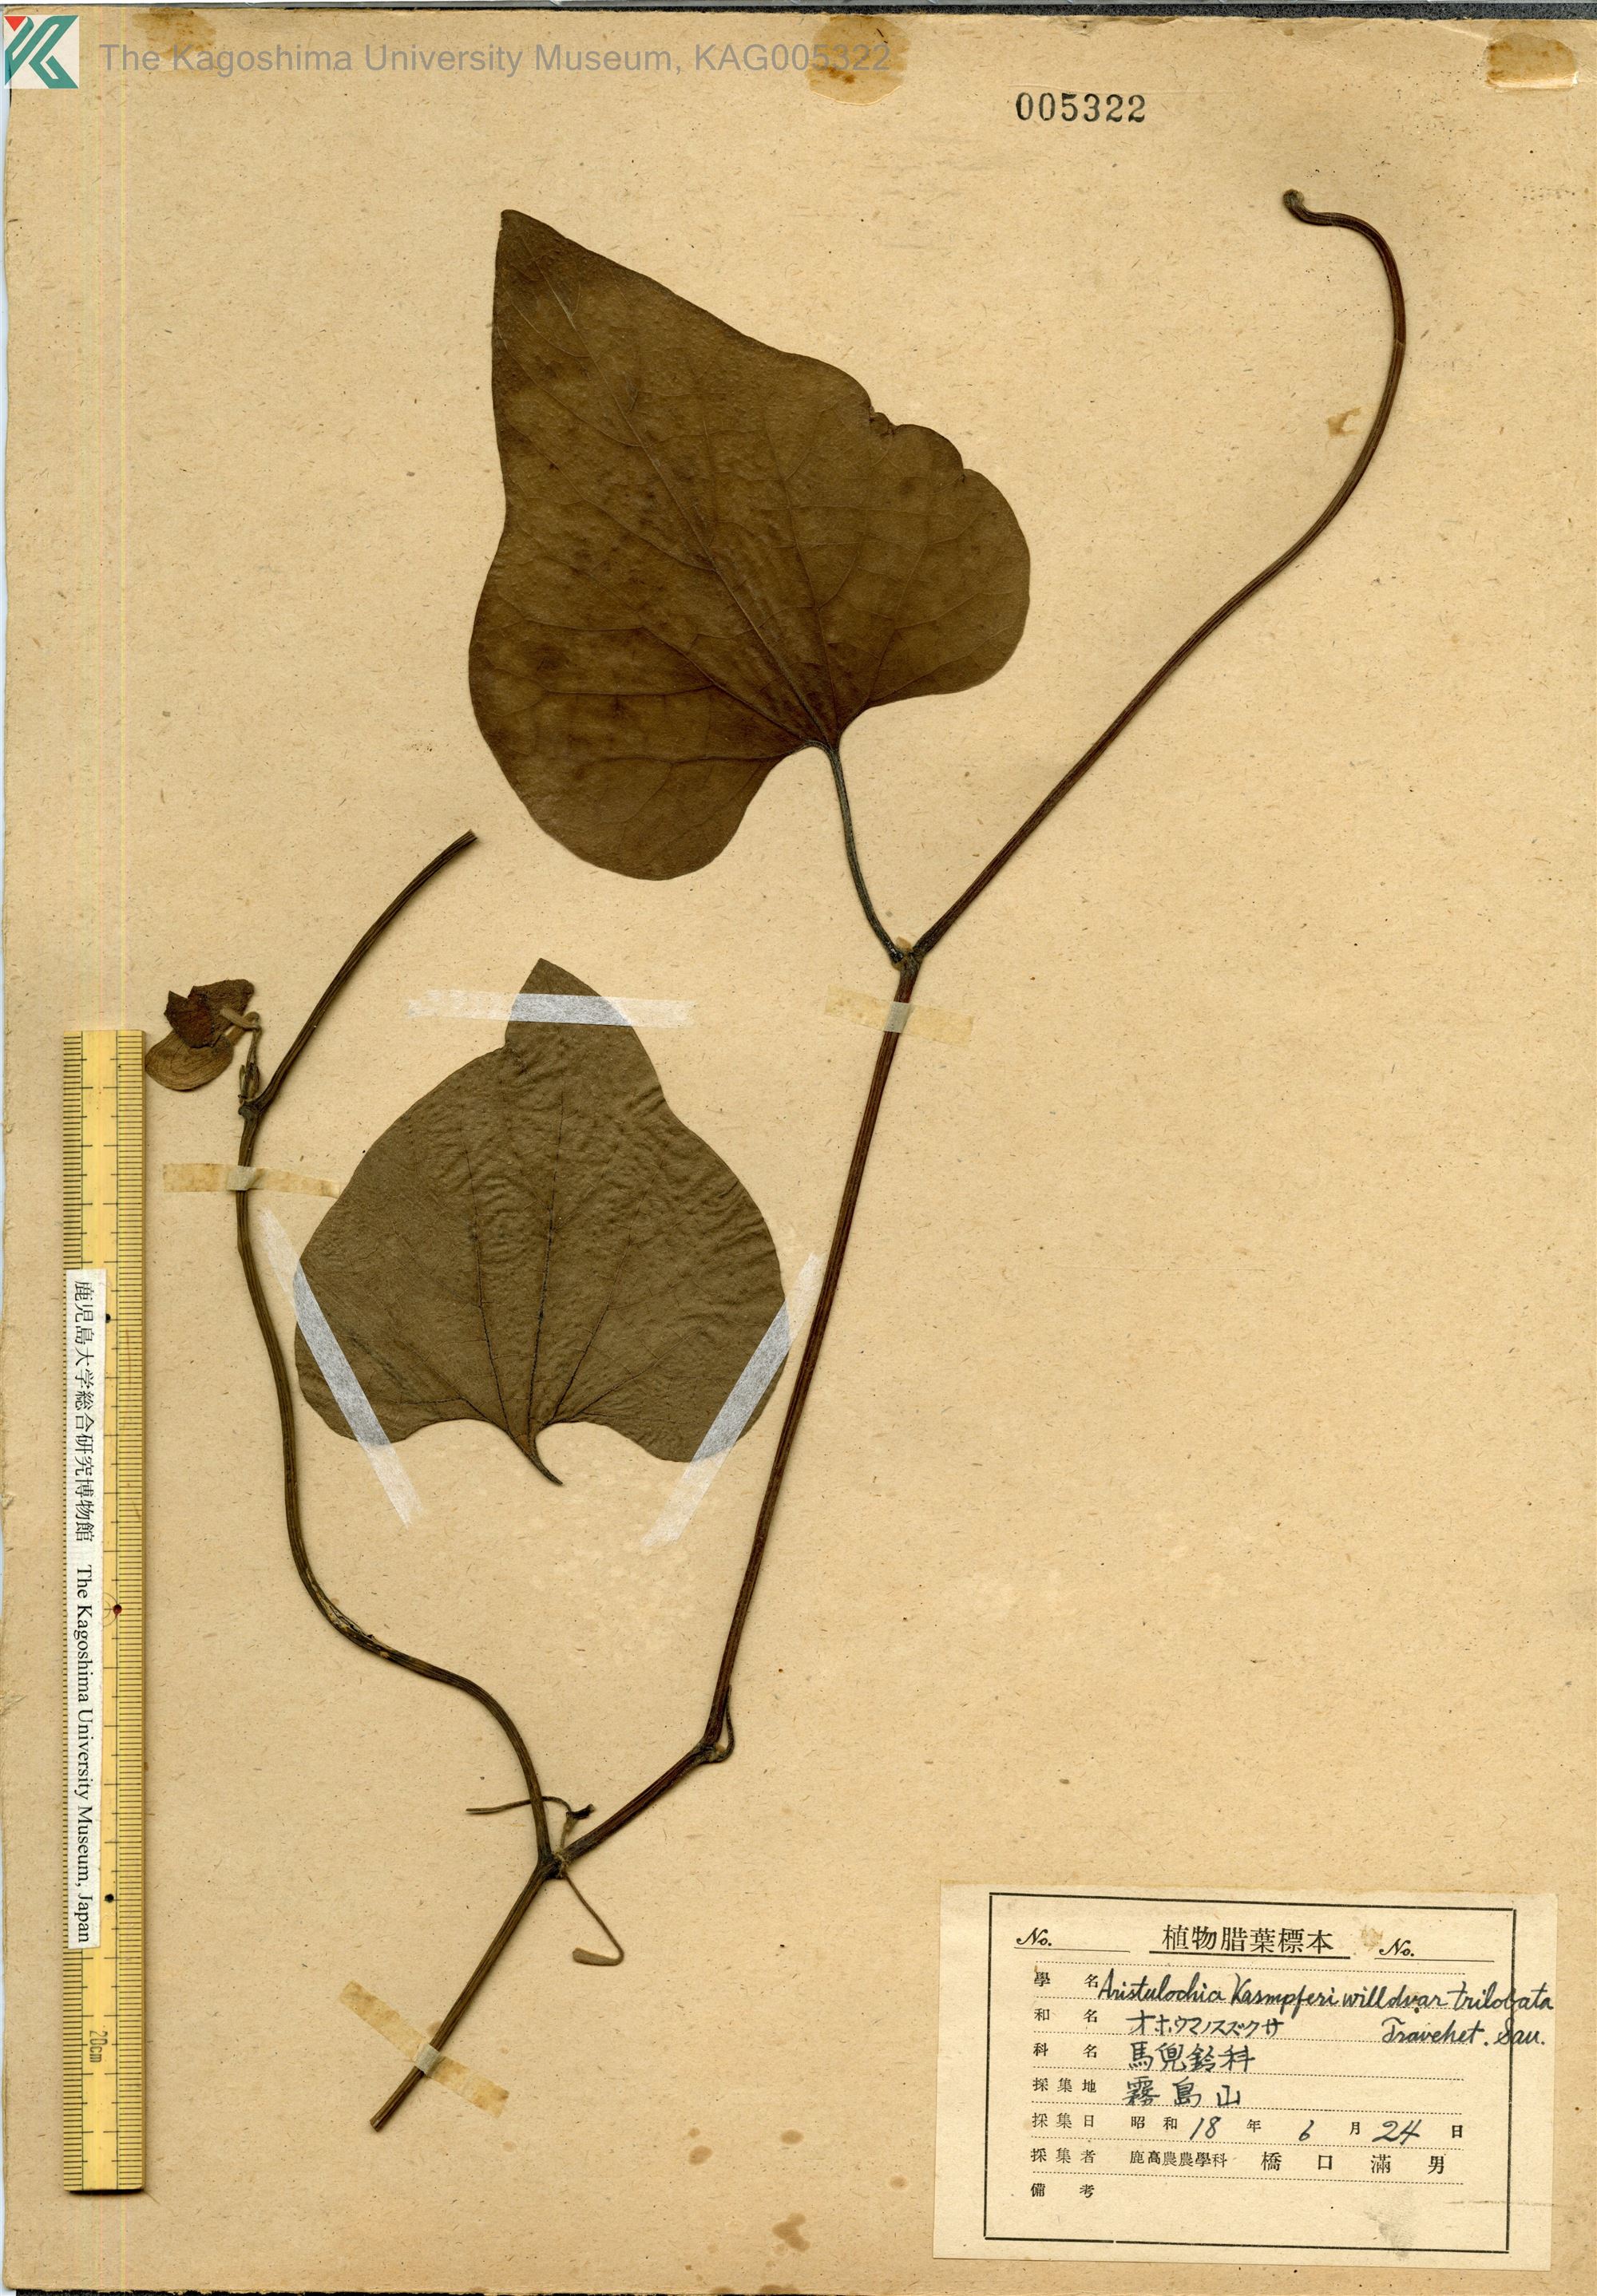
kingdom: Plantae
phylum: Tracheophyta
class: Magnoliopsida
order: Piperales
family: Aristolochiaceae
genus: Isotrema
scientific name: Isotrema kaempferi
